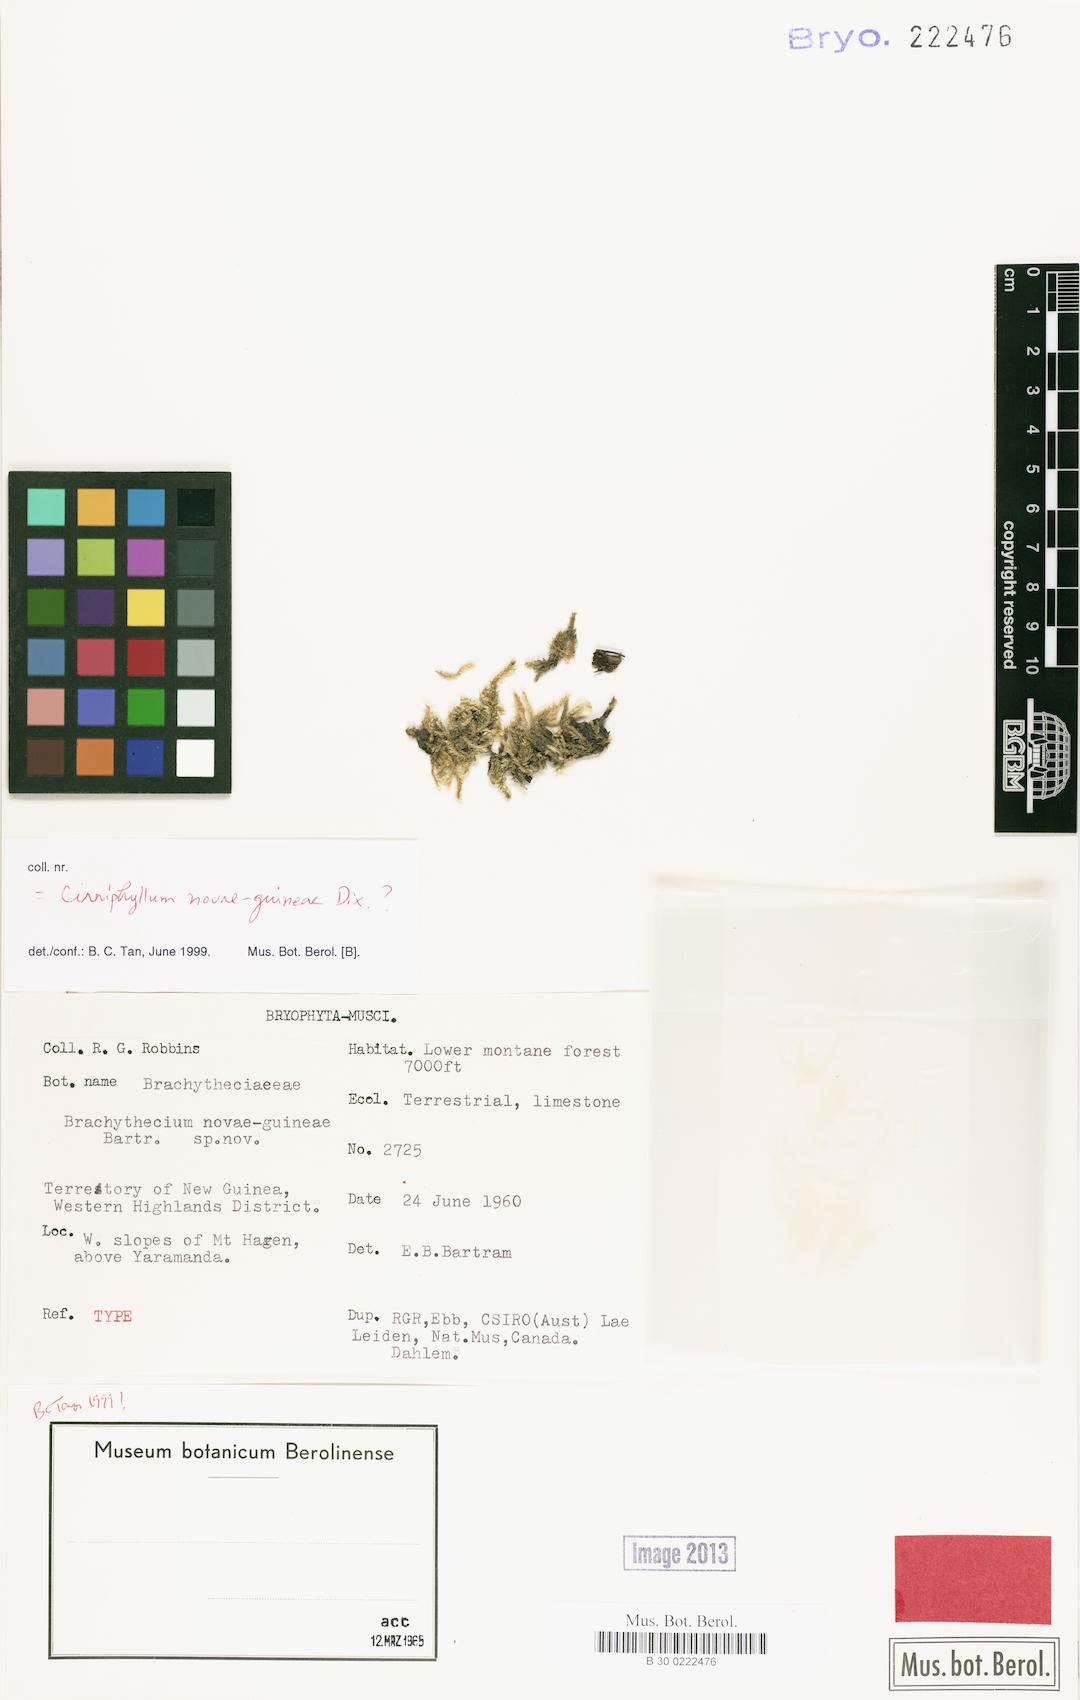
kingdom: Plantae
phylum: Bryophyta
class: Bryopsida
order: Hypnales
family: Brachytheciaceae
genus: Brachythecium
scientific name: Brachythecium lamprocarpum
